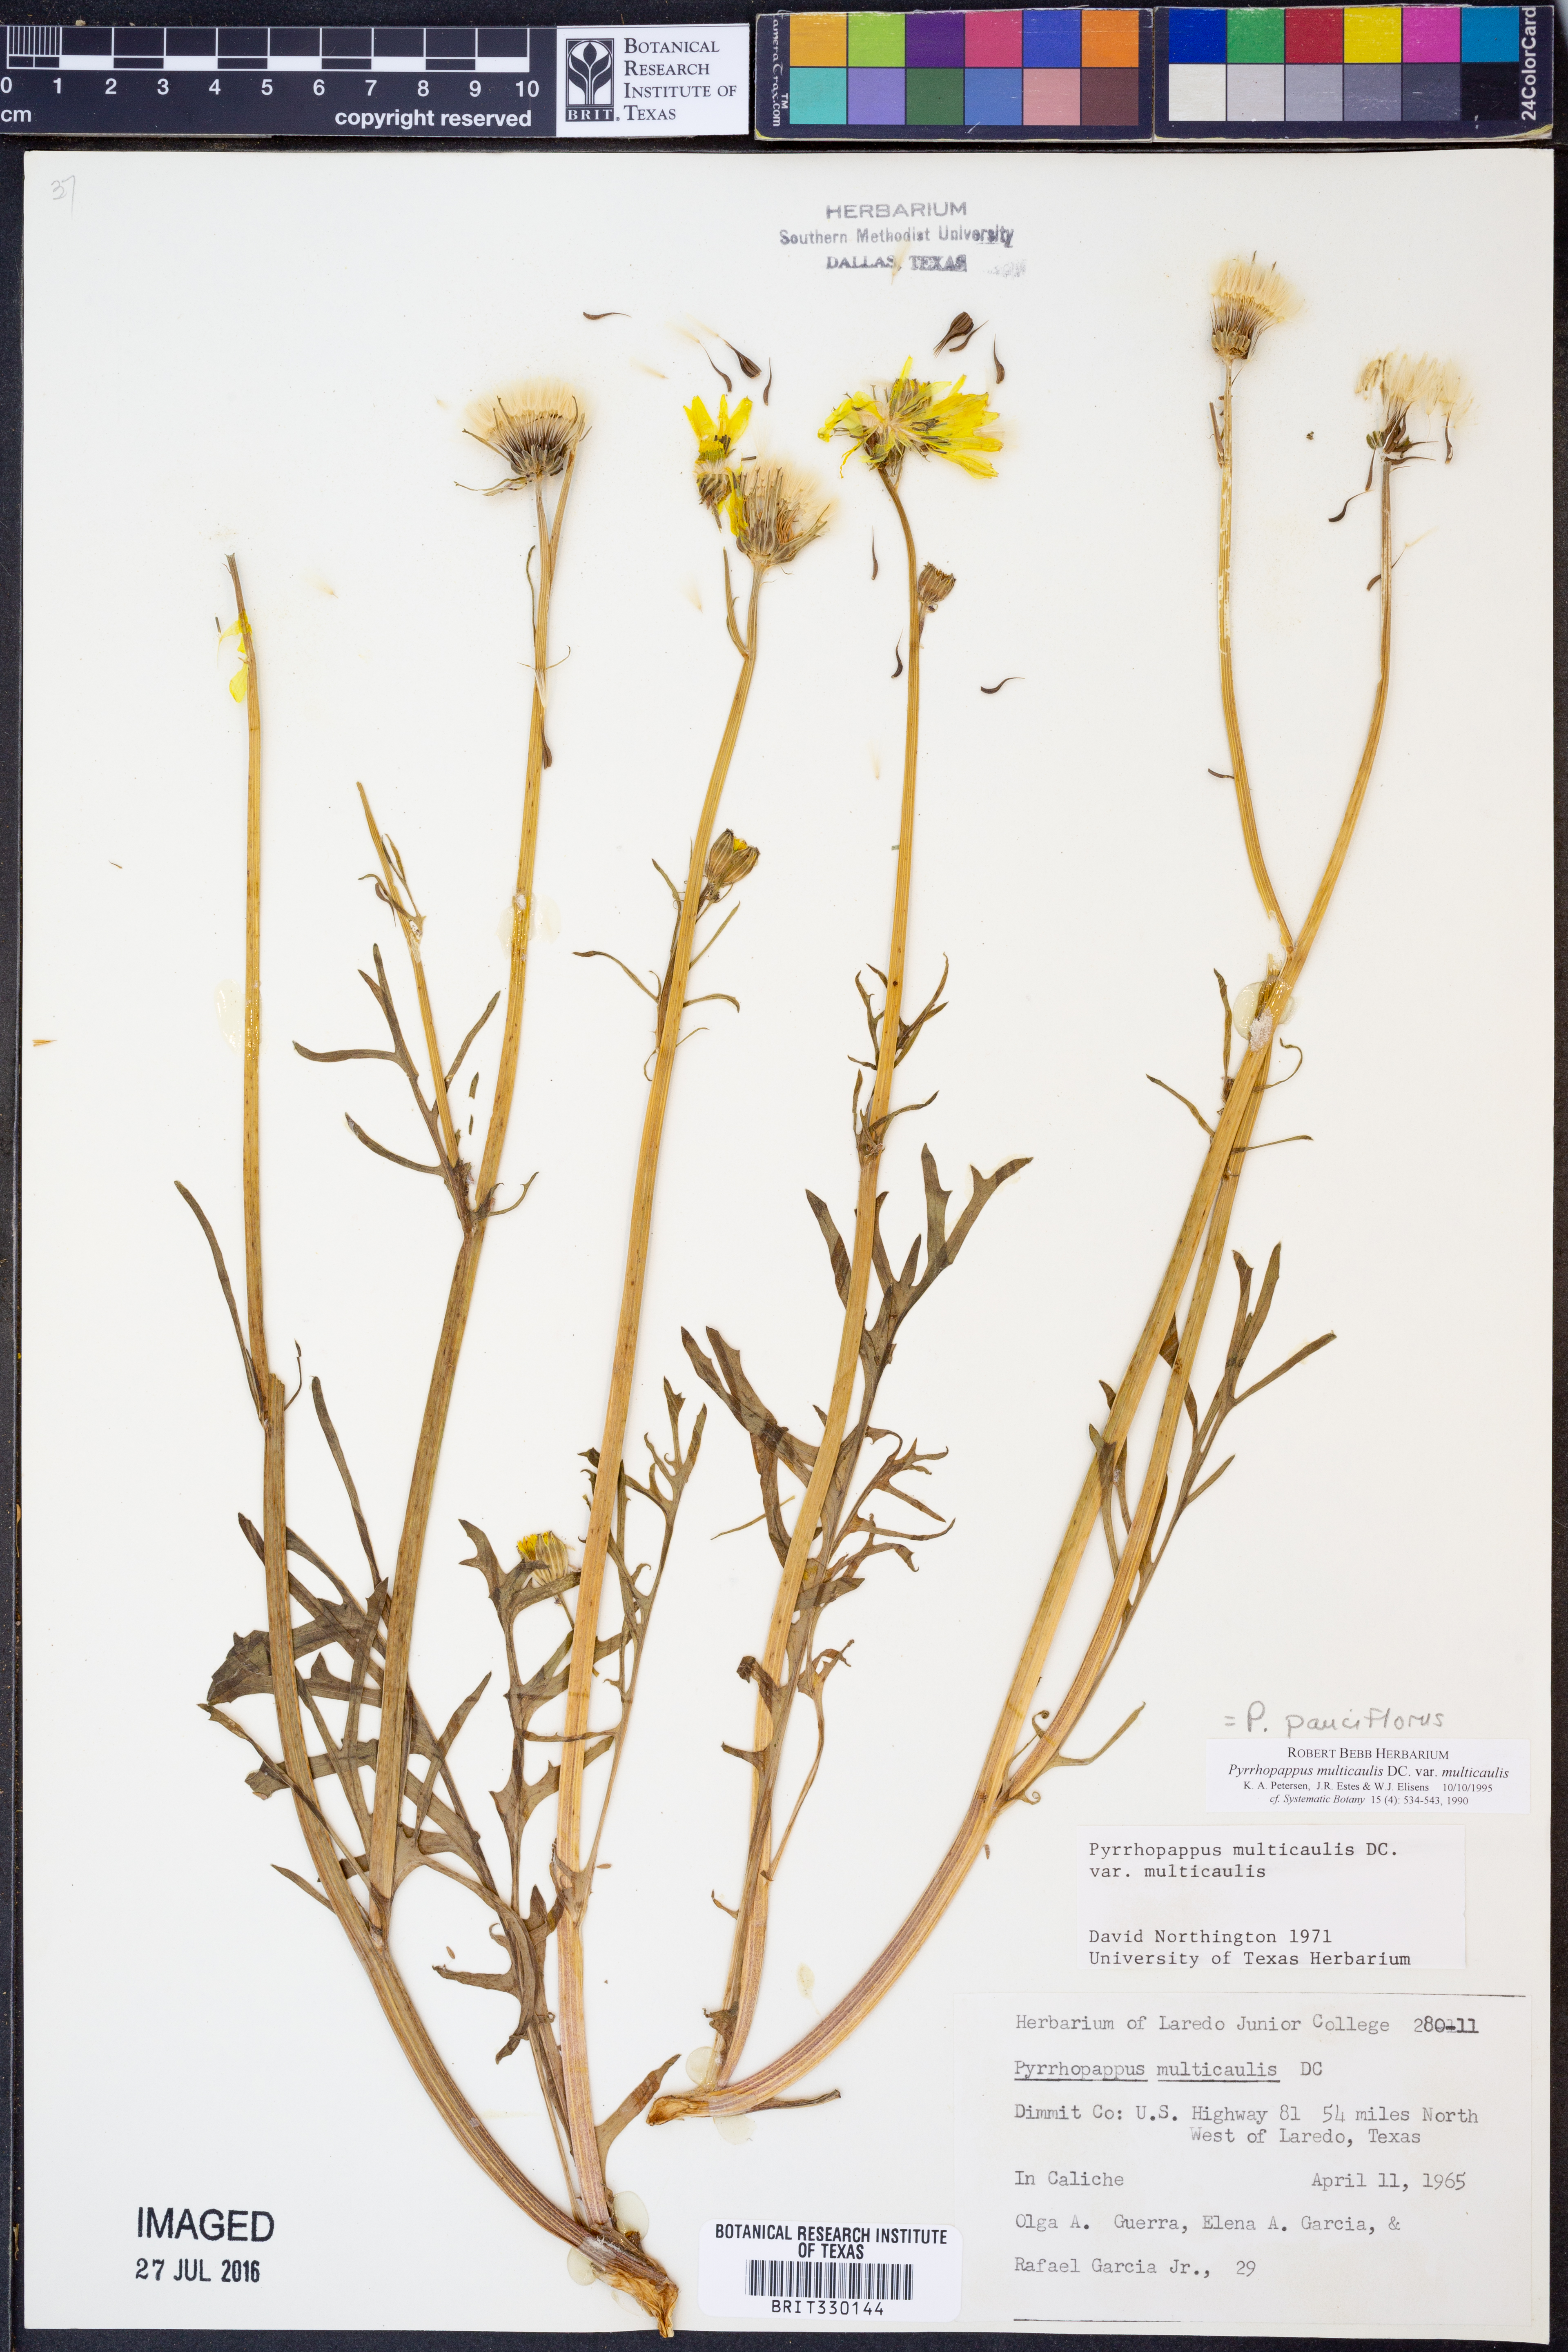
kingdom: Plantae
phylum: Tracheophyta
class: Magnoliopsida
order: Asterales
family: Asteraceae
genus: Pyrrhopappus
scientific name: Pyrrhopappus pauciflorus
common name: Texas false dandelion
